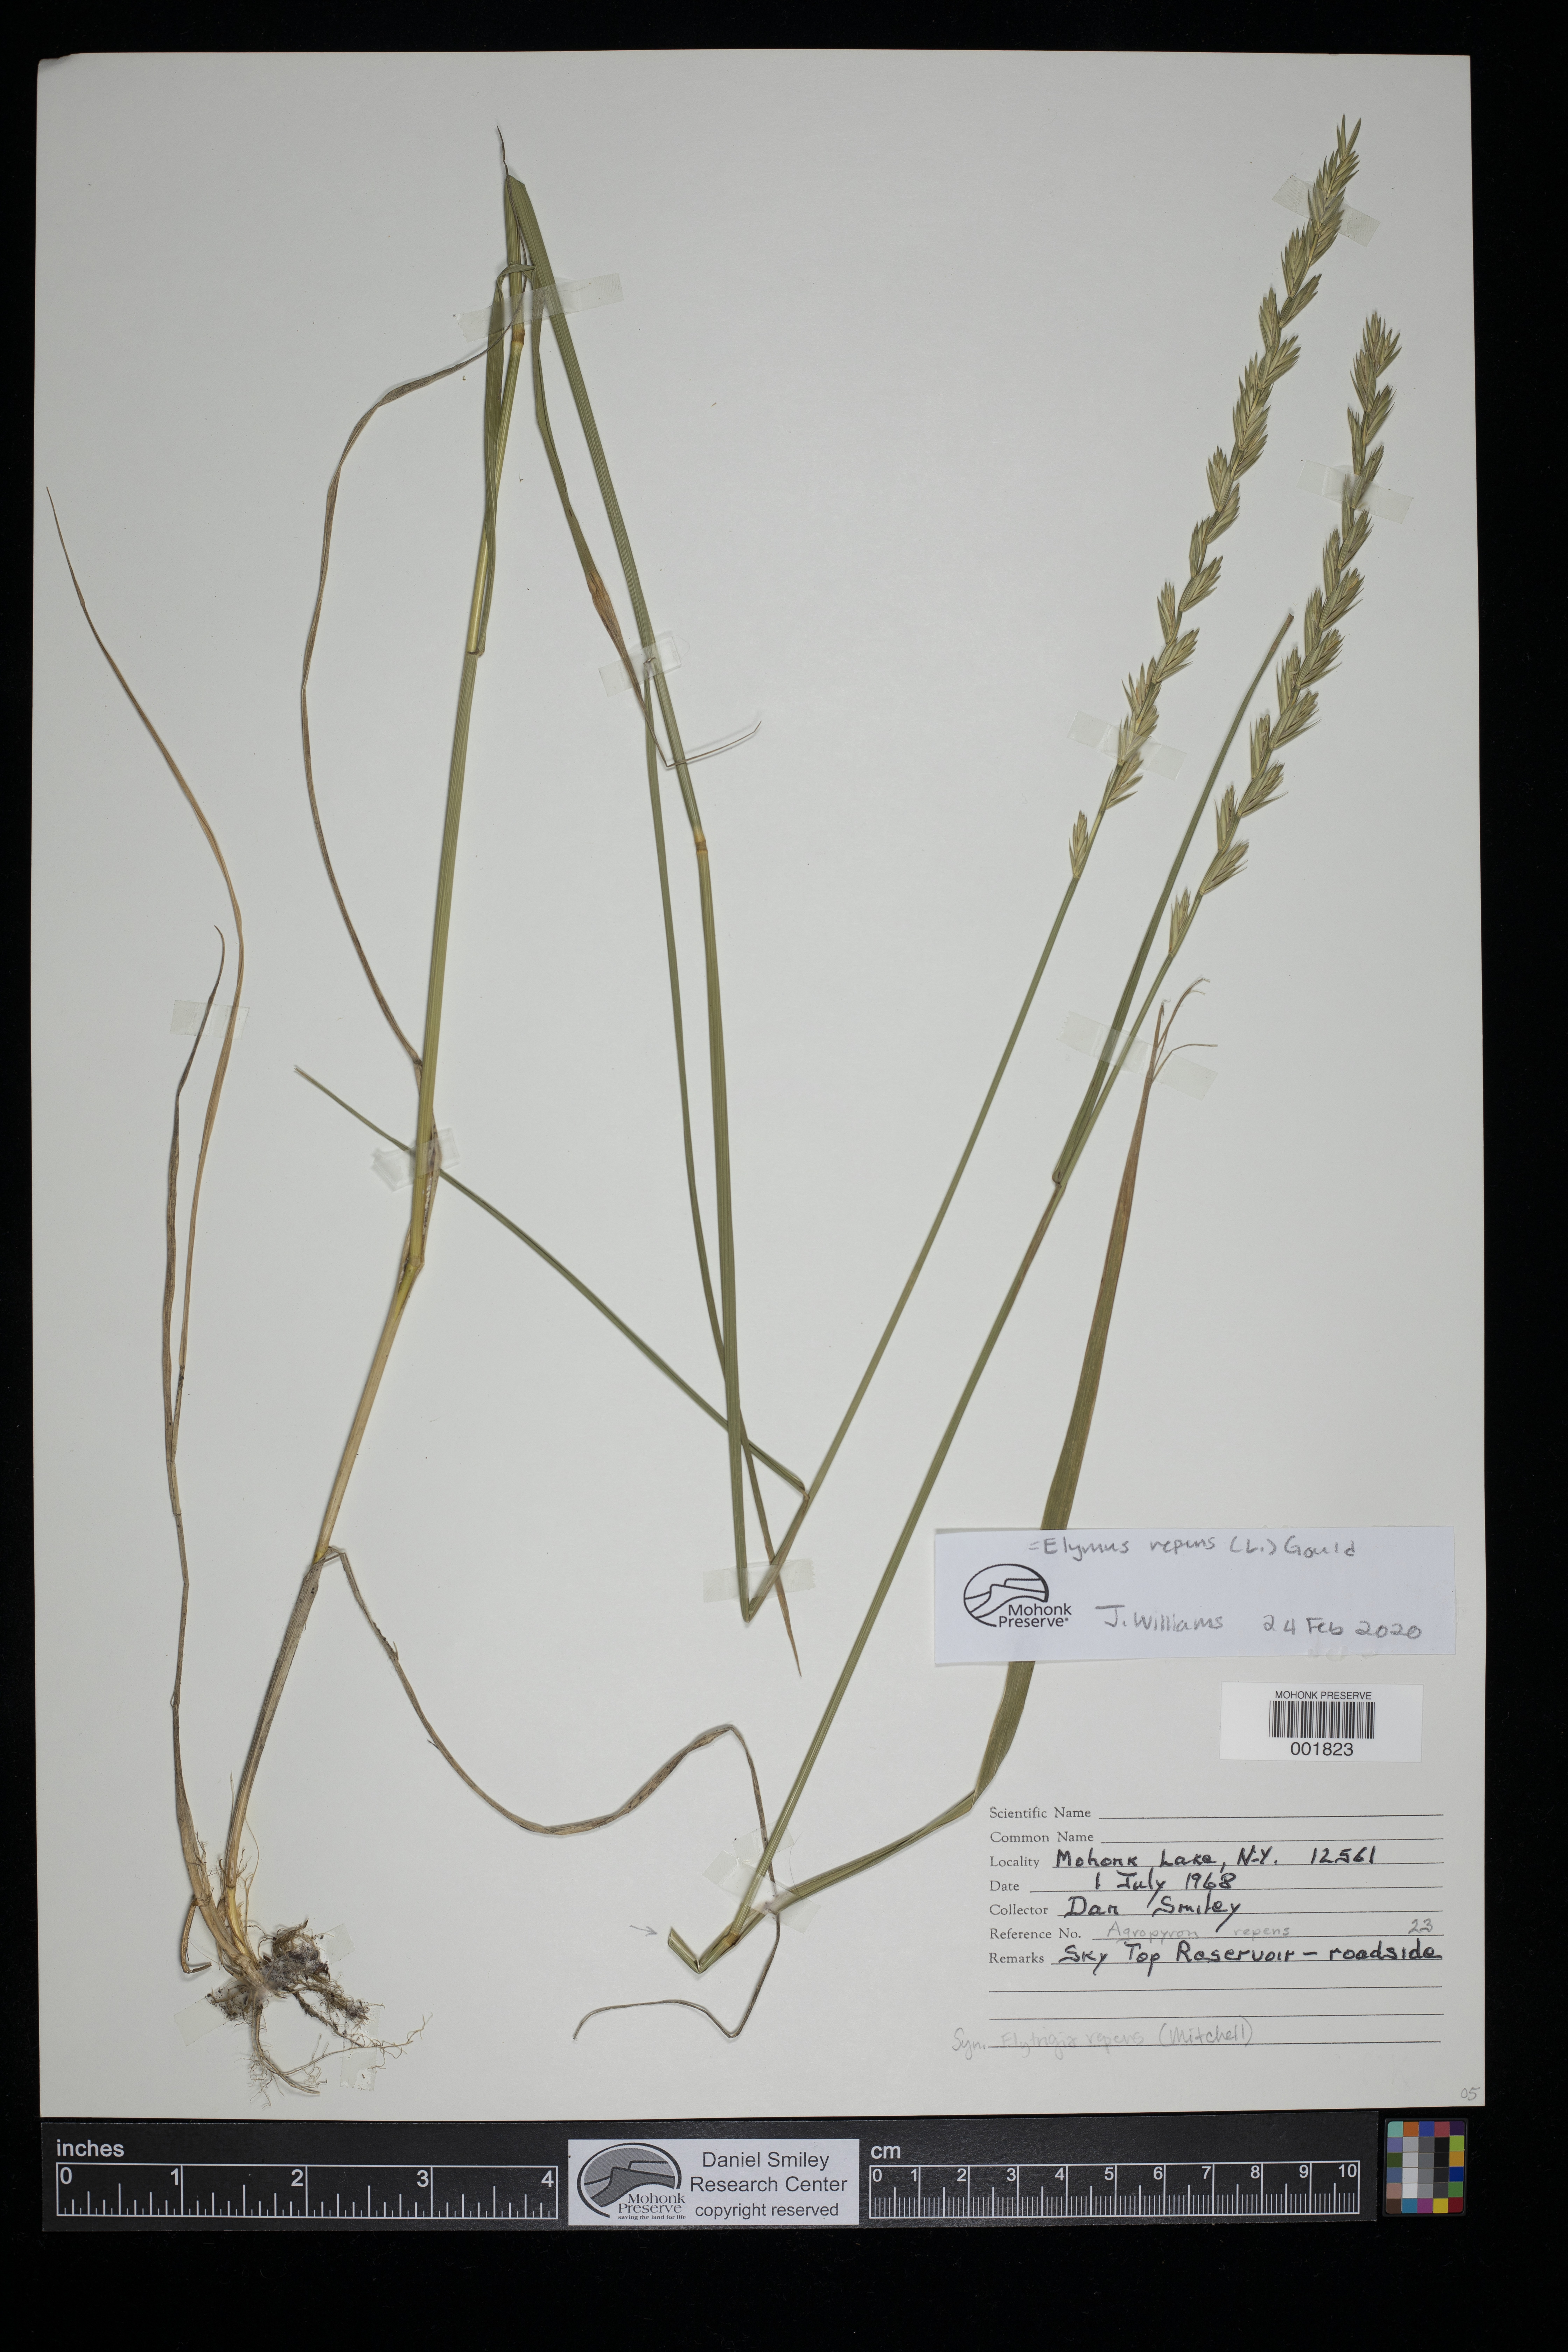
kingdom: Plantae
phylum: Tracheophyta
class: Liliopsida
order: Poales
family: Poaceae
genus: Elymus
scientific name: Elymus repens
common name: Quackgrass
